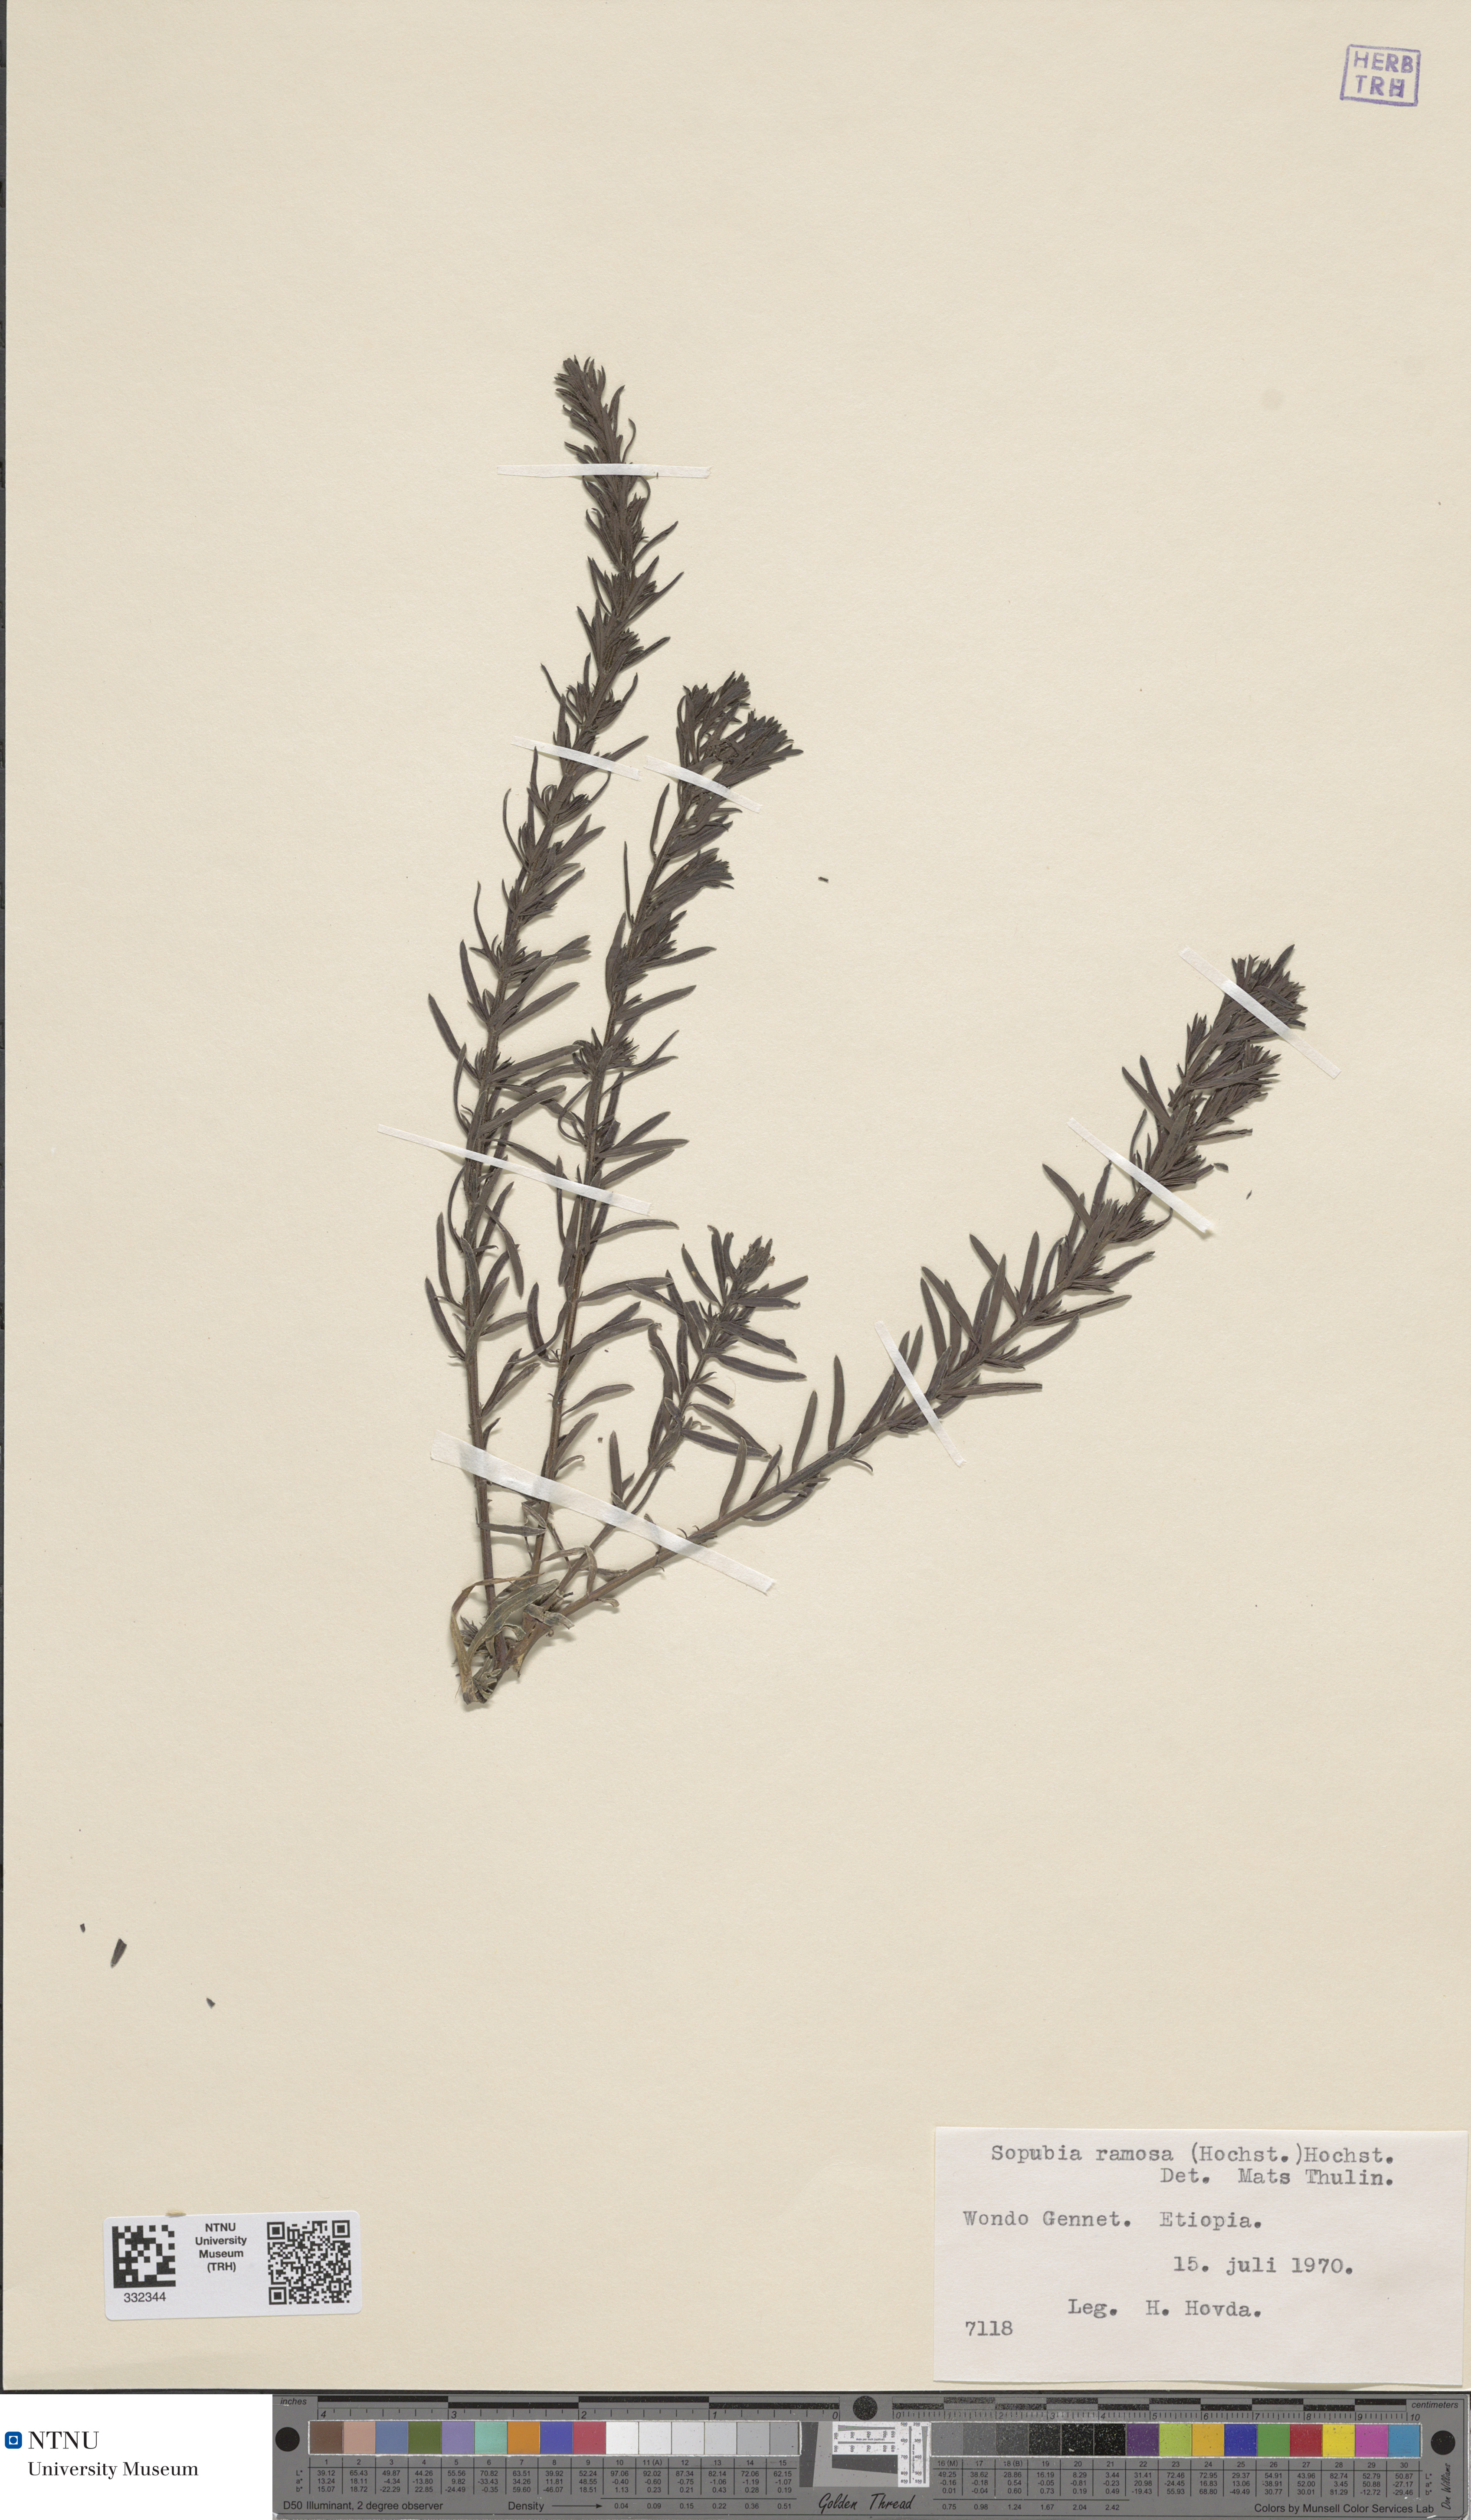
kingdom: Plantae
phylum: Tracheophyta
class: Magnoliopsida
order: Lamiales
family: Orobanchaceae
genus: Sopubia
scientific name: Sopubia ramosa
